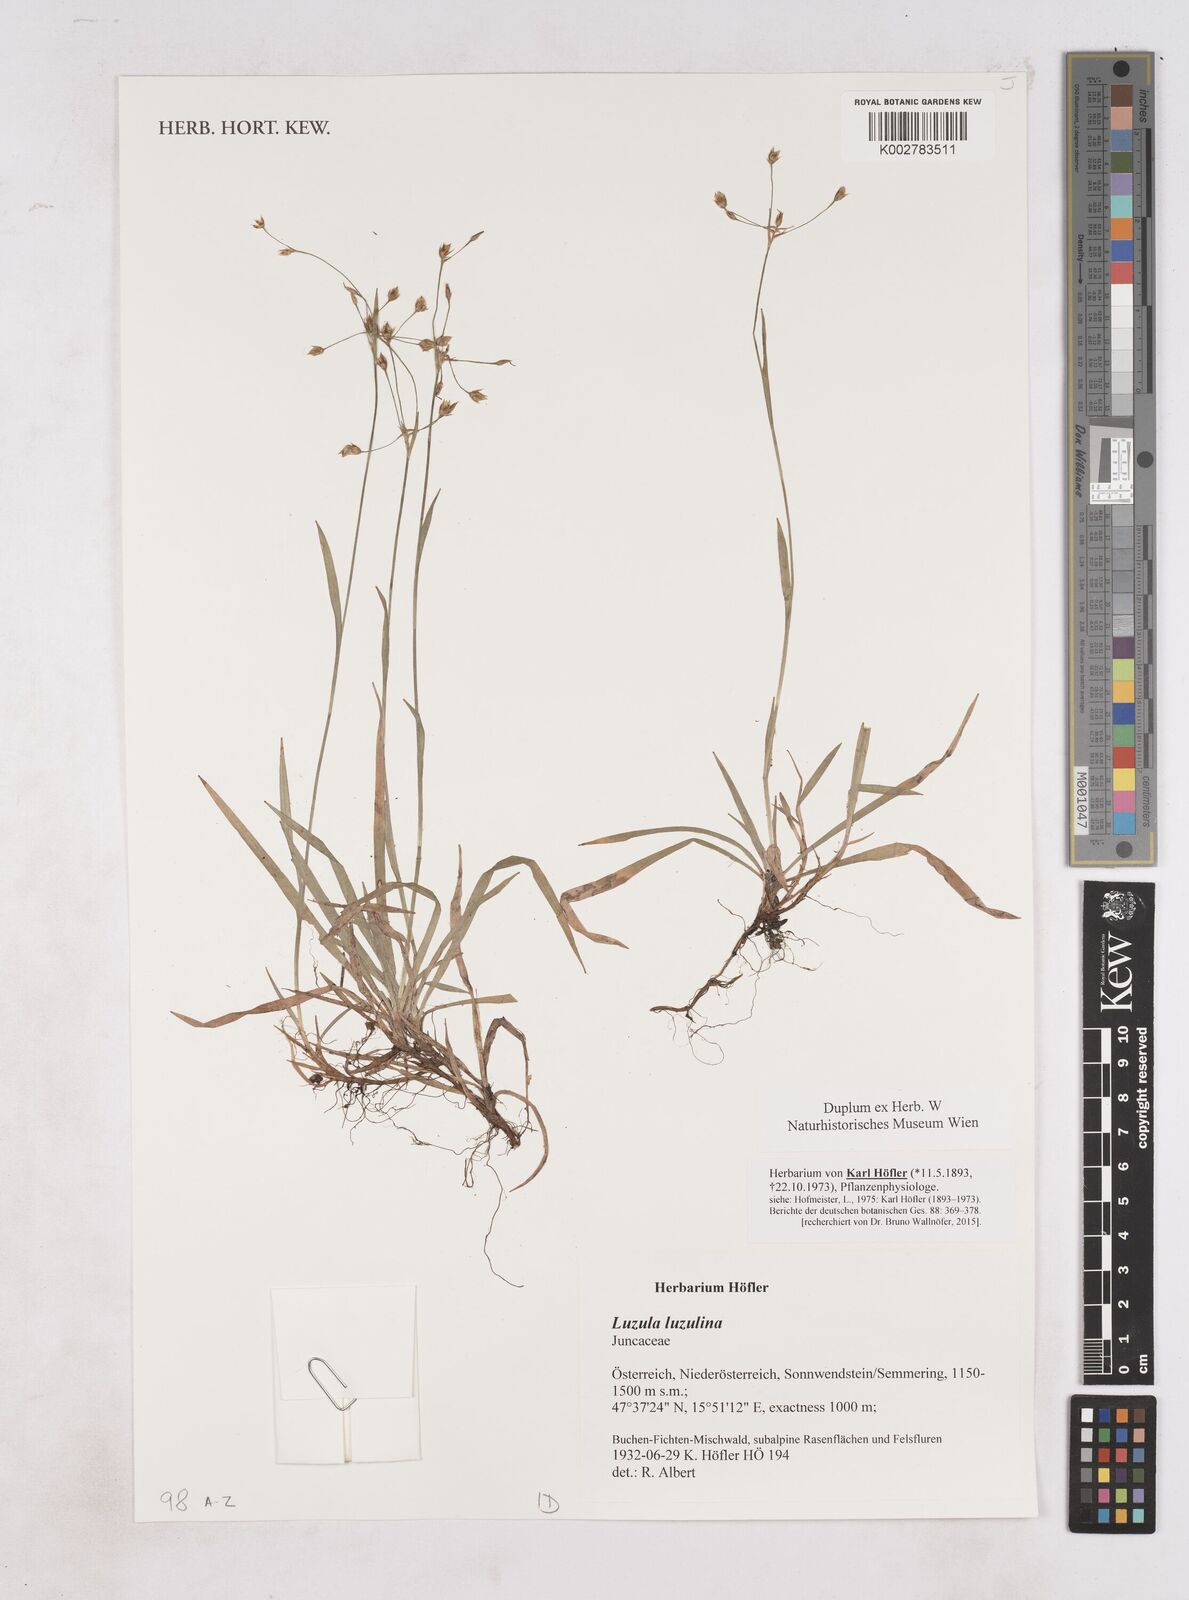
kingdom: Plantae
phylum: Tracheophyta
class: Liliopsida
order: Poales
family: Juncaceae
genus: Luzula
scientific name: Luzula luzulina
